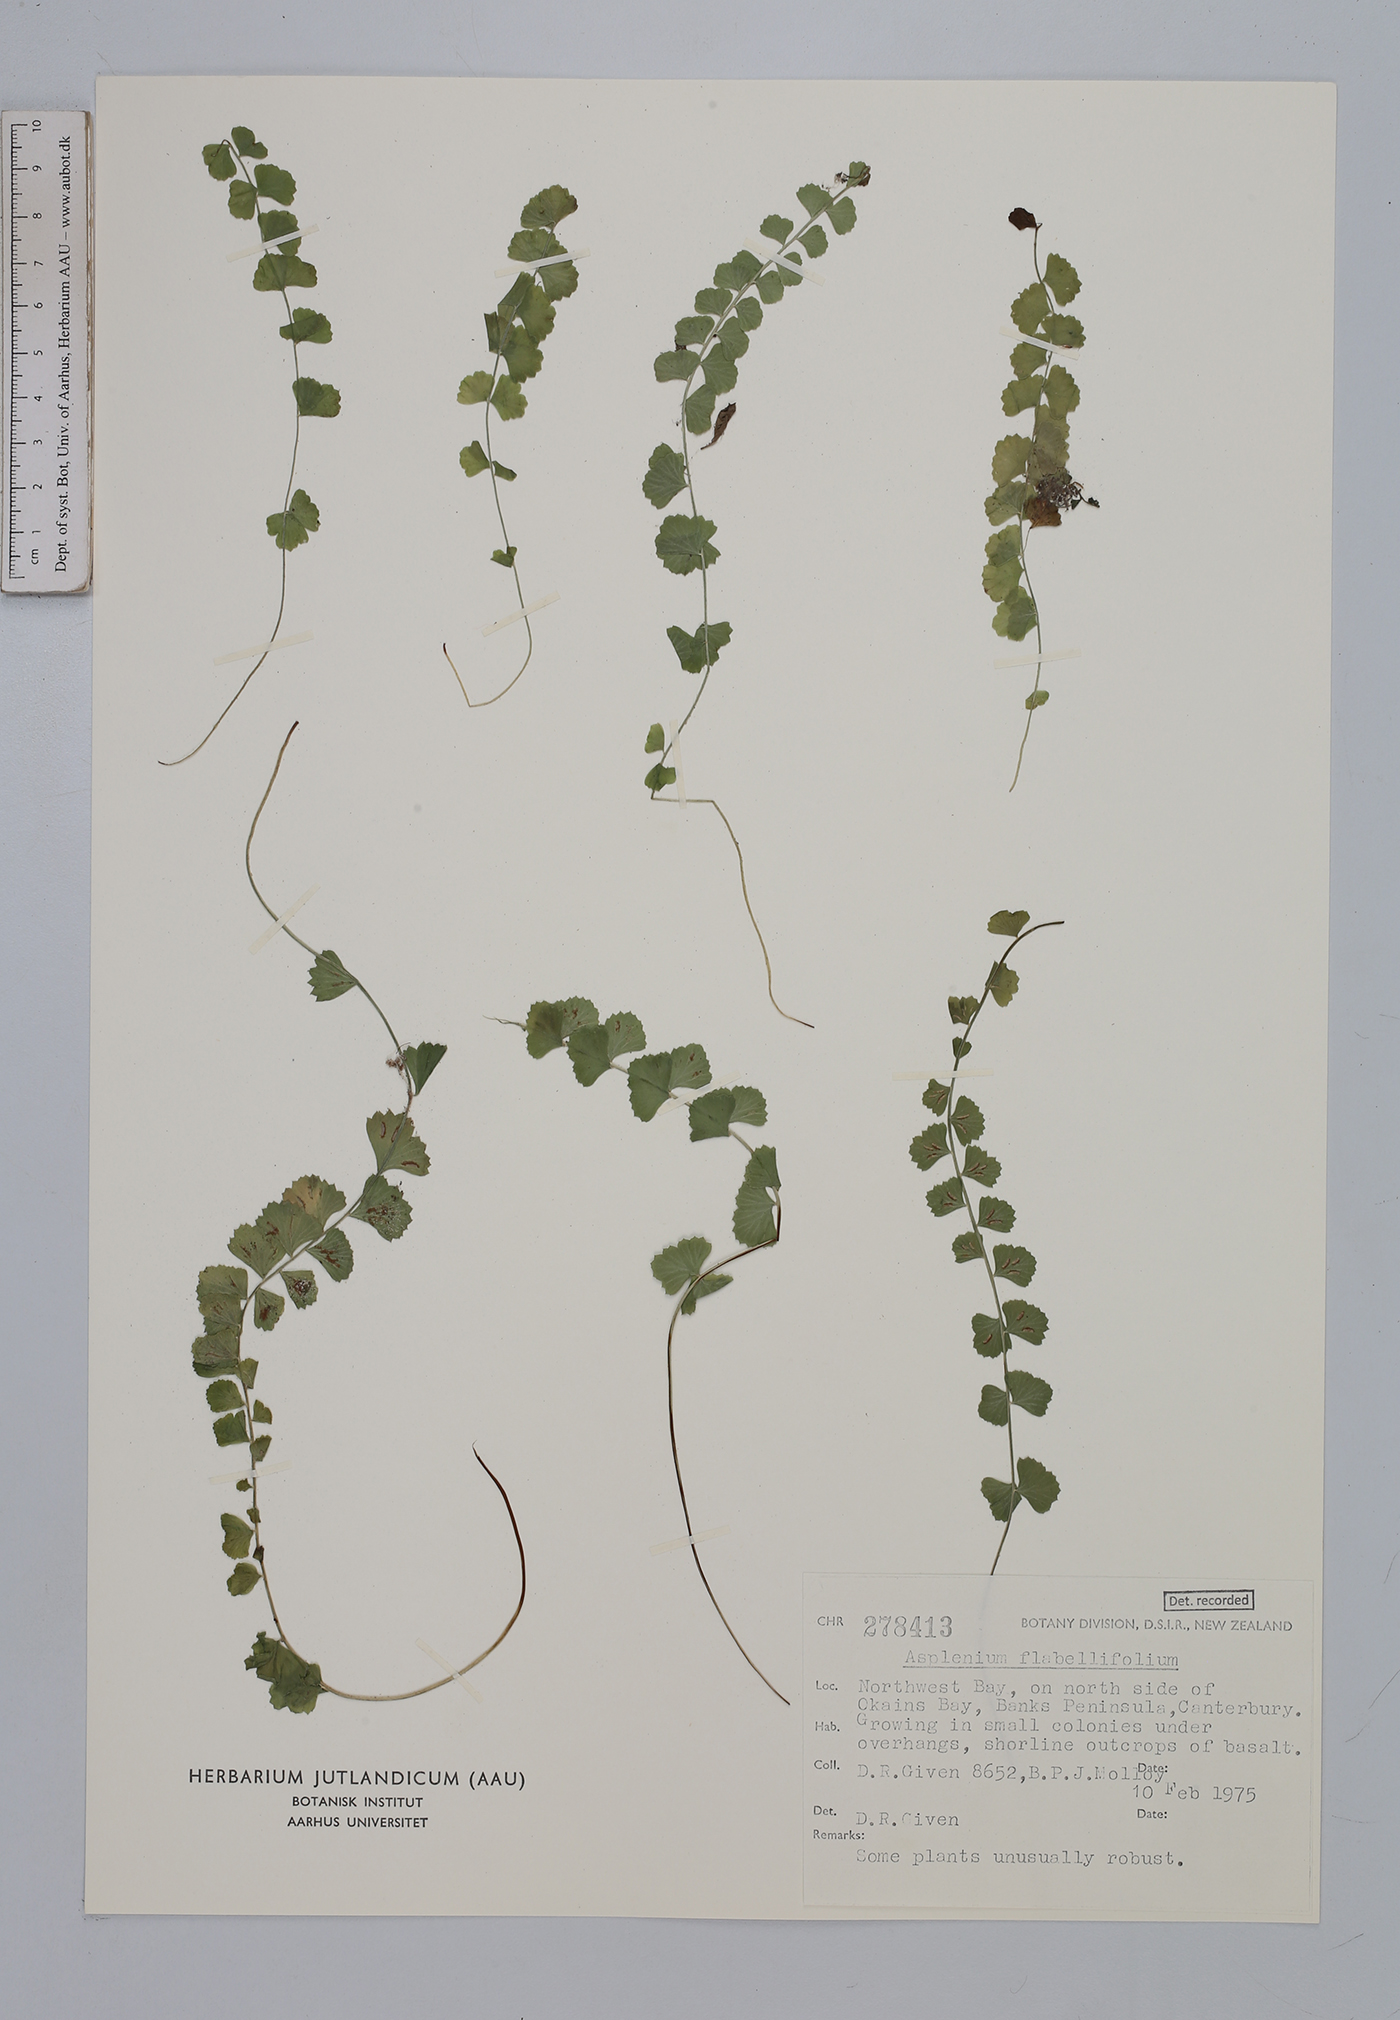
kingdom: Plantae
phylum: Tracheophyta
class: Polypodiopsida
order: Polypodiales
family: Aspleniaceae
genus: Asplenium
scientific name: Asplenium flabellifolium
